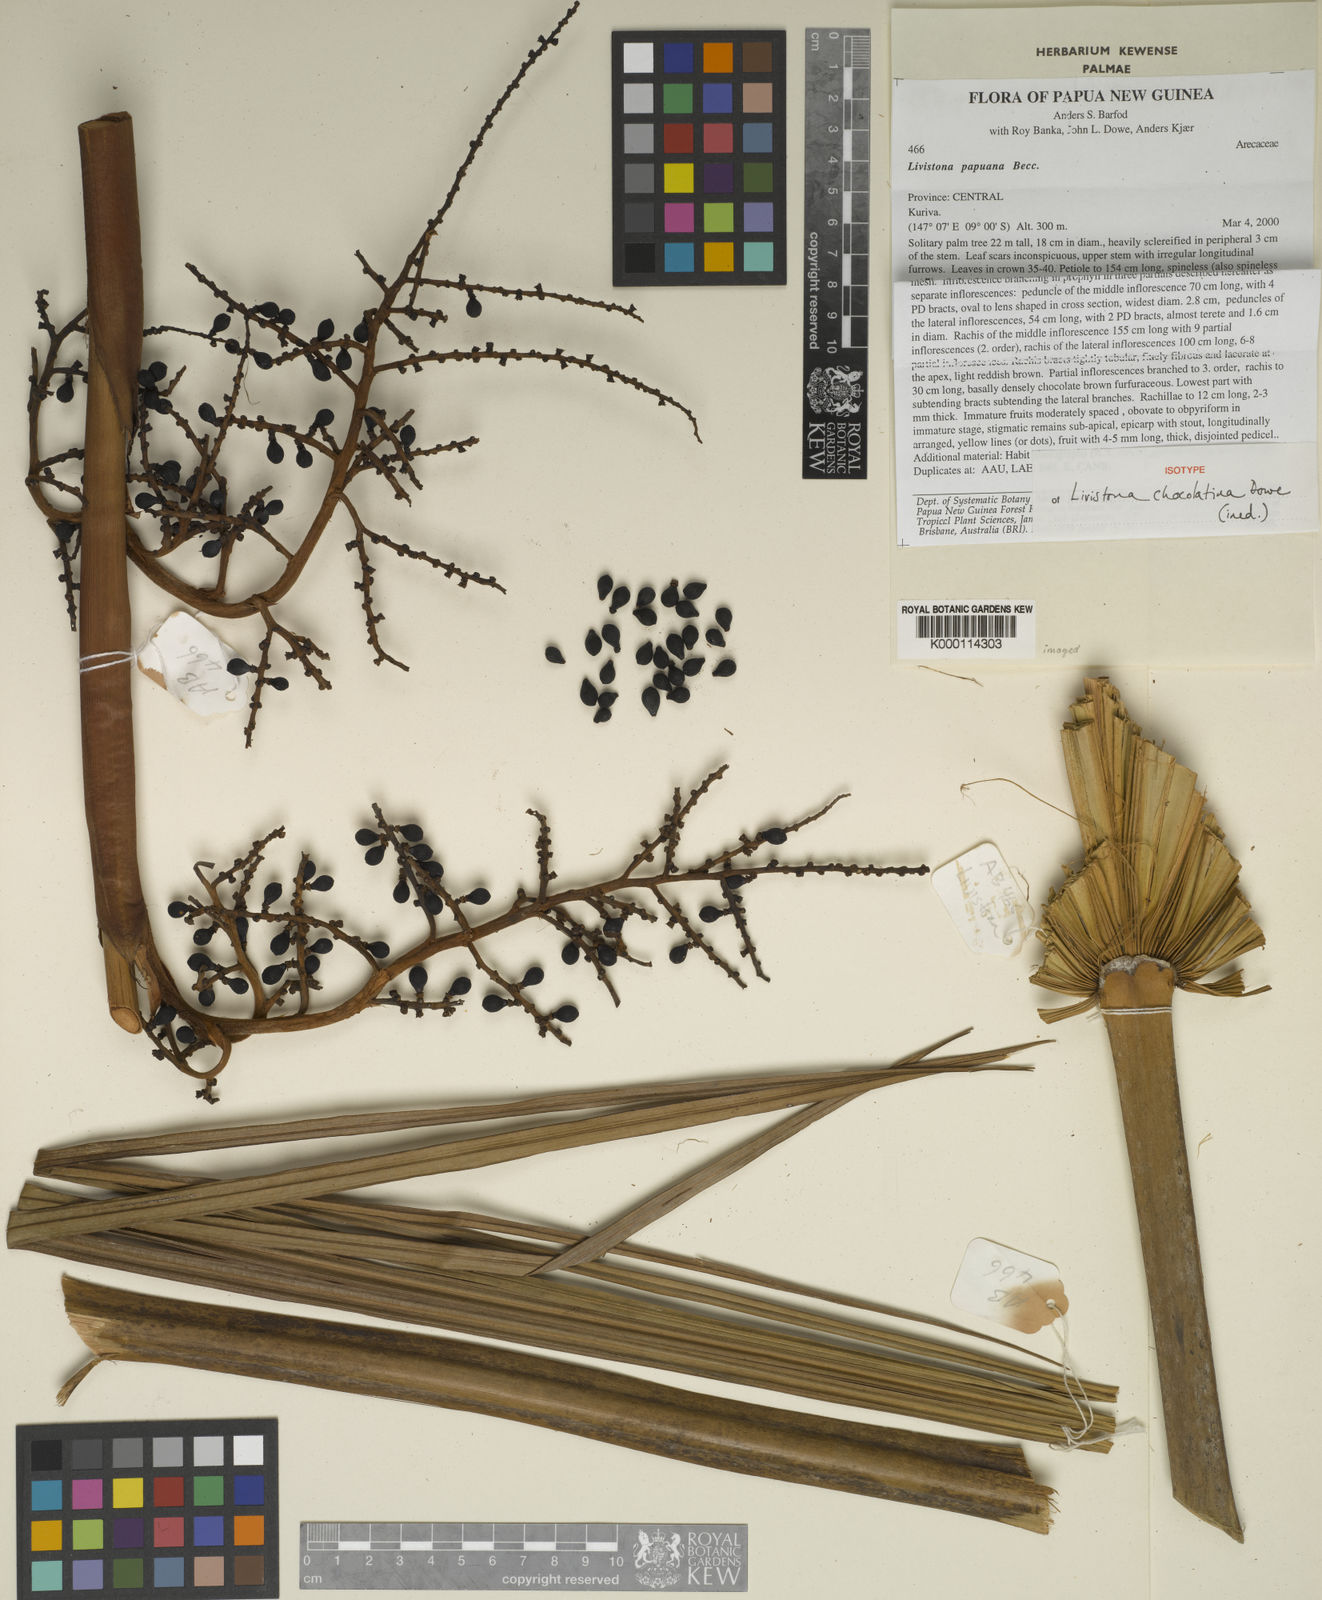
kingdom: Plantae
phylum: Tracheophyta
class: Liliopsida
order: Arecales
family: Arecaceae
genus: Saribus
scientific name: Saribus chocolatinus
